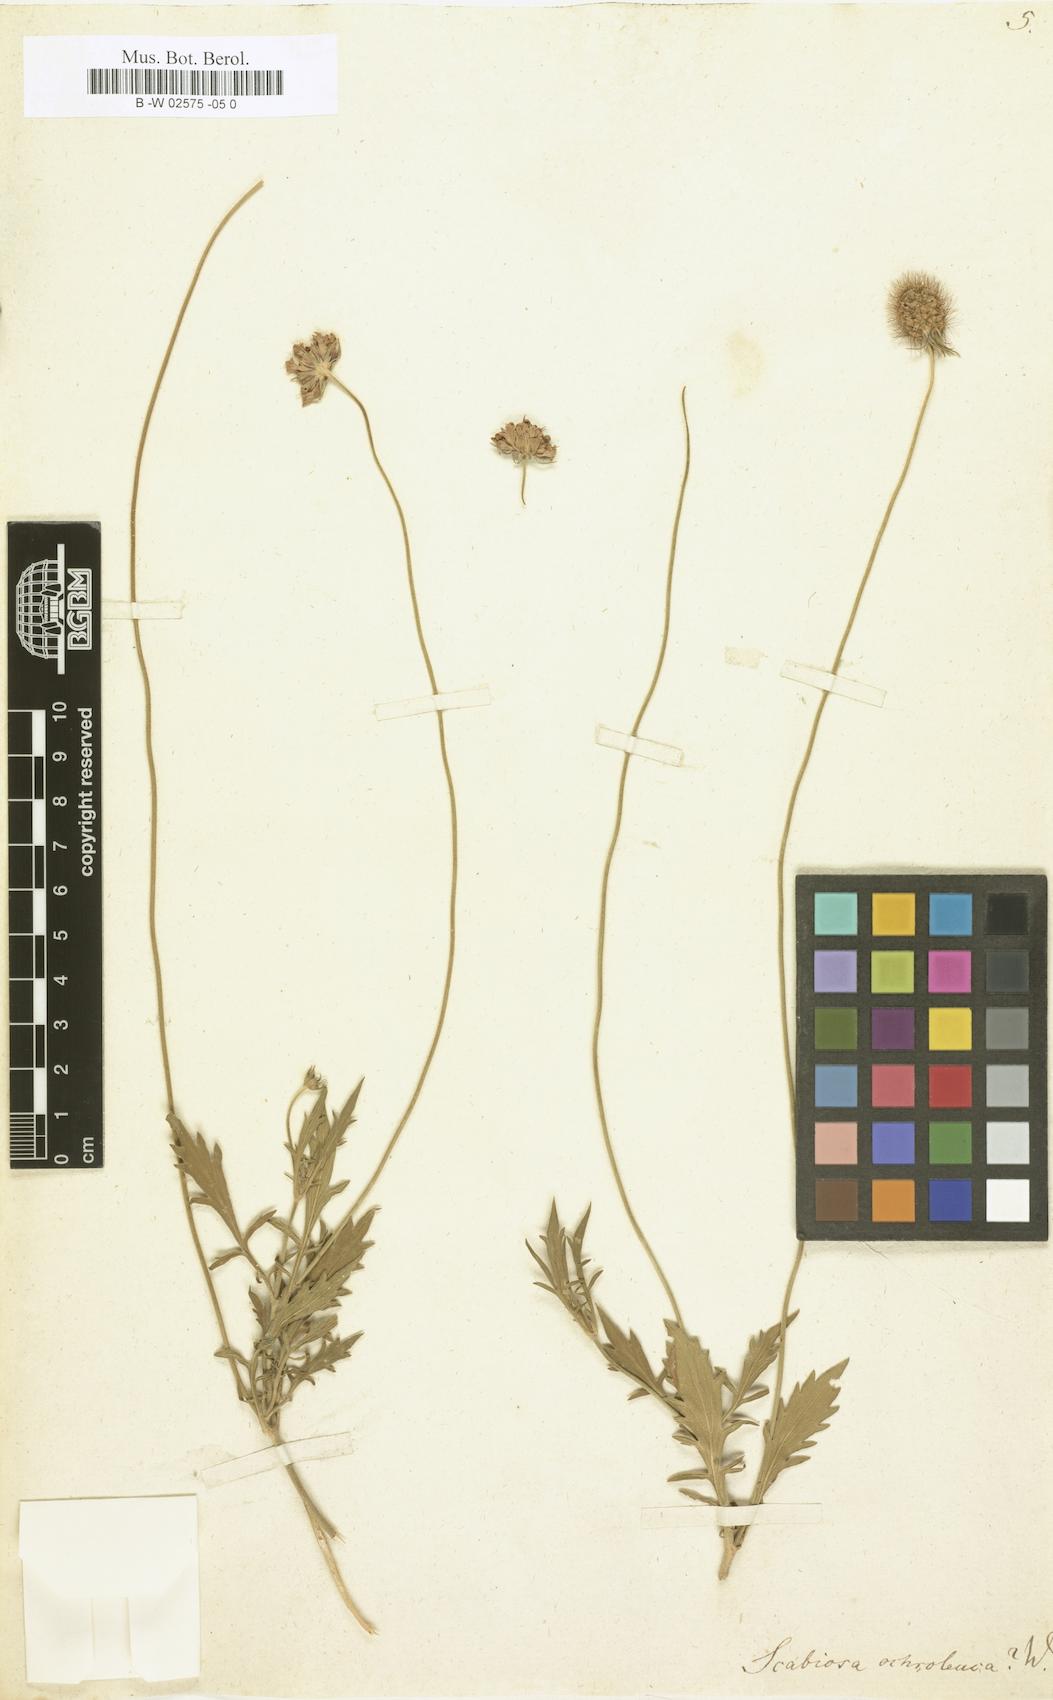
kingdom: Plantae
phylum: Tracheophyta
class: Magnoliopsida
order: Dipsacales
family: Caprifoliaceae
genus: Scabiosa
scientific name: Scabiosa ochroleuca
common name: Cream pincushions
